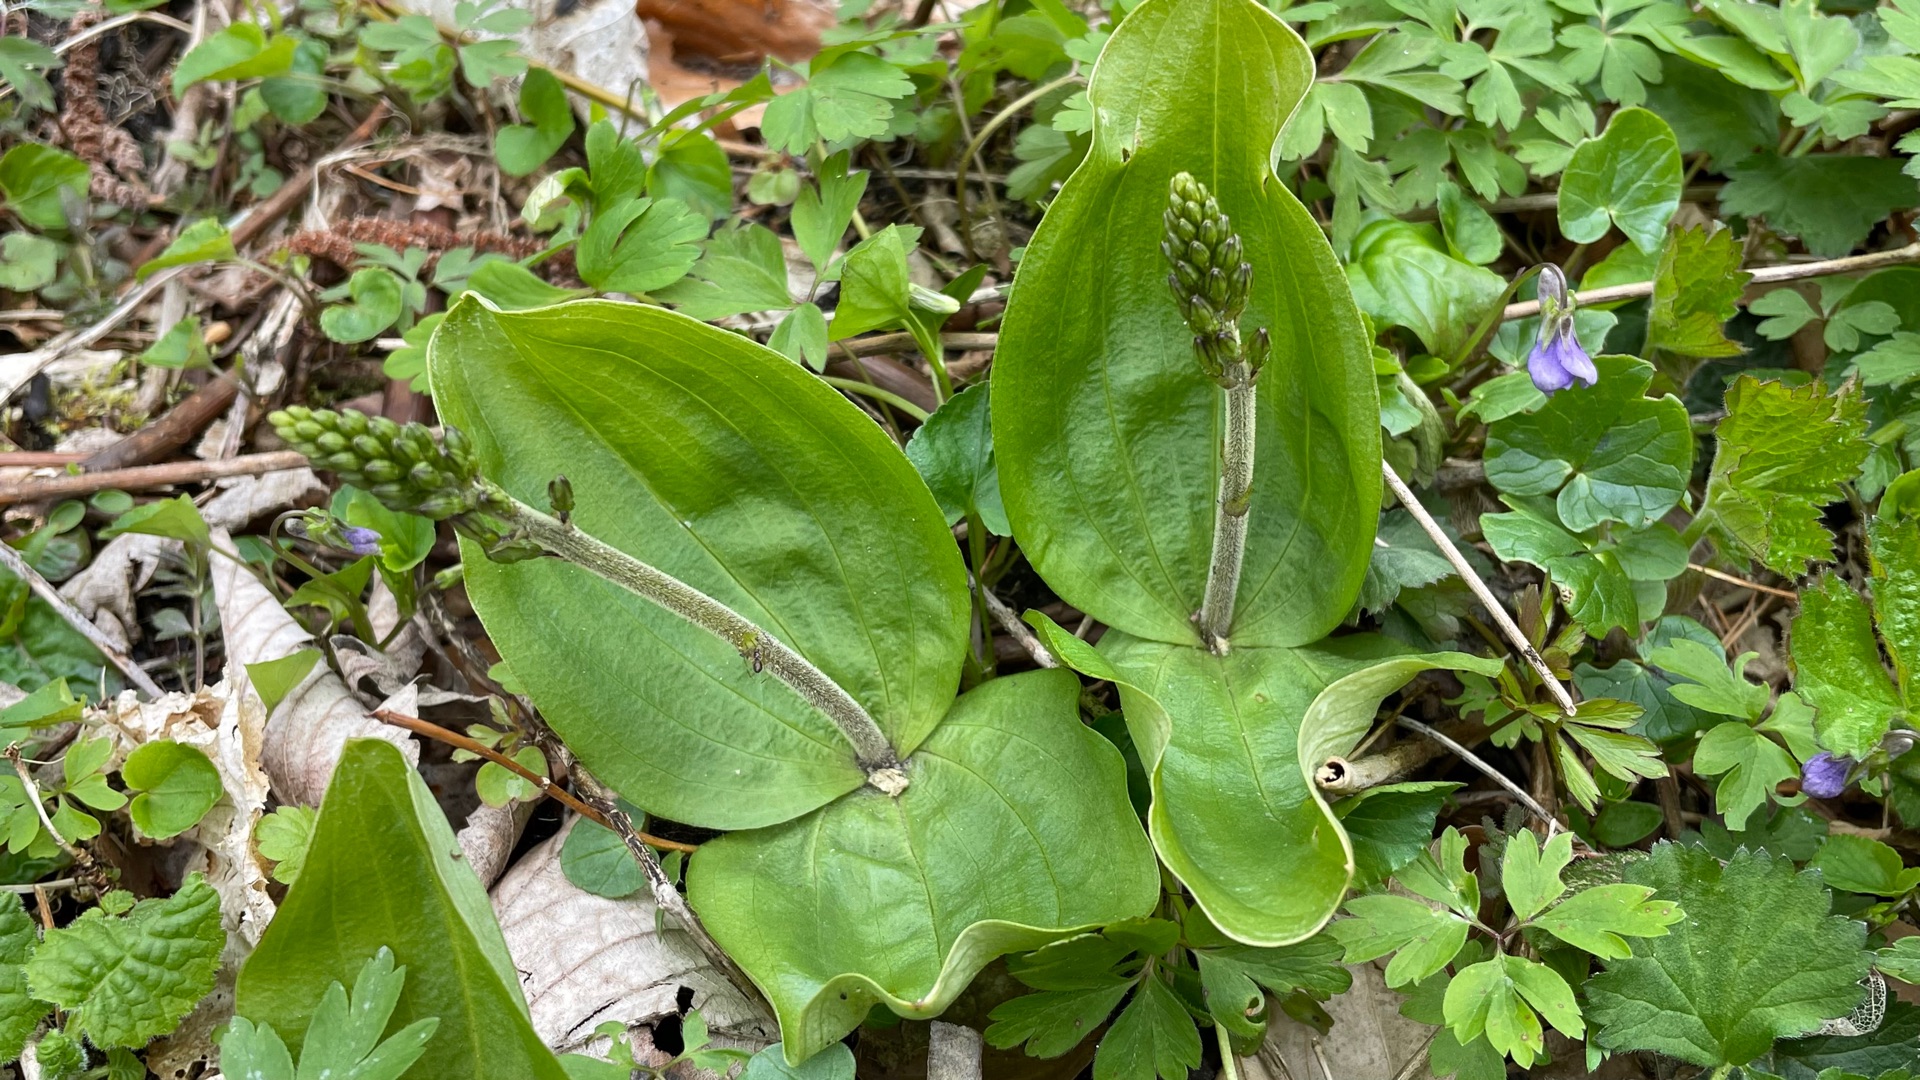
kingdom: Plantae
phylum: Tracheophyta
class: Liliopsida
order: Asparagales
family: Orchidaceae
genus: Neottia
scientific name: Neottia ovata
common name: Ægbladet fliglæbe
